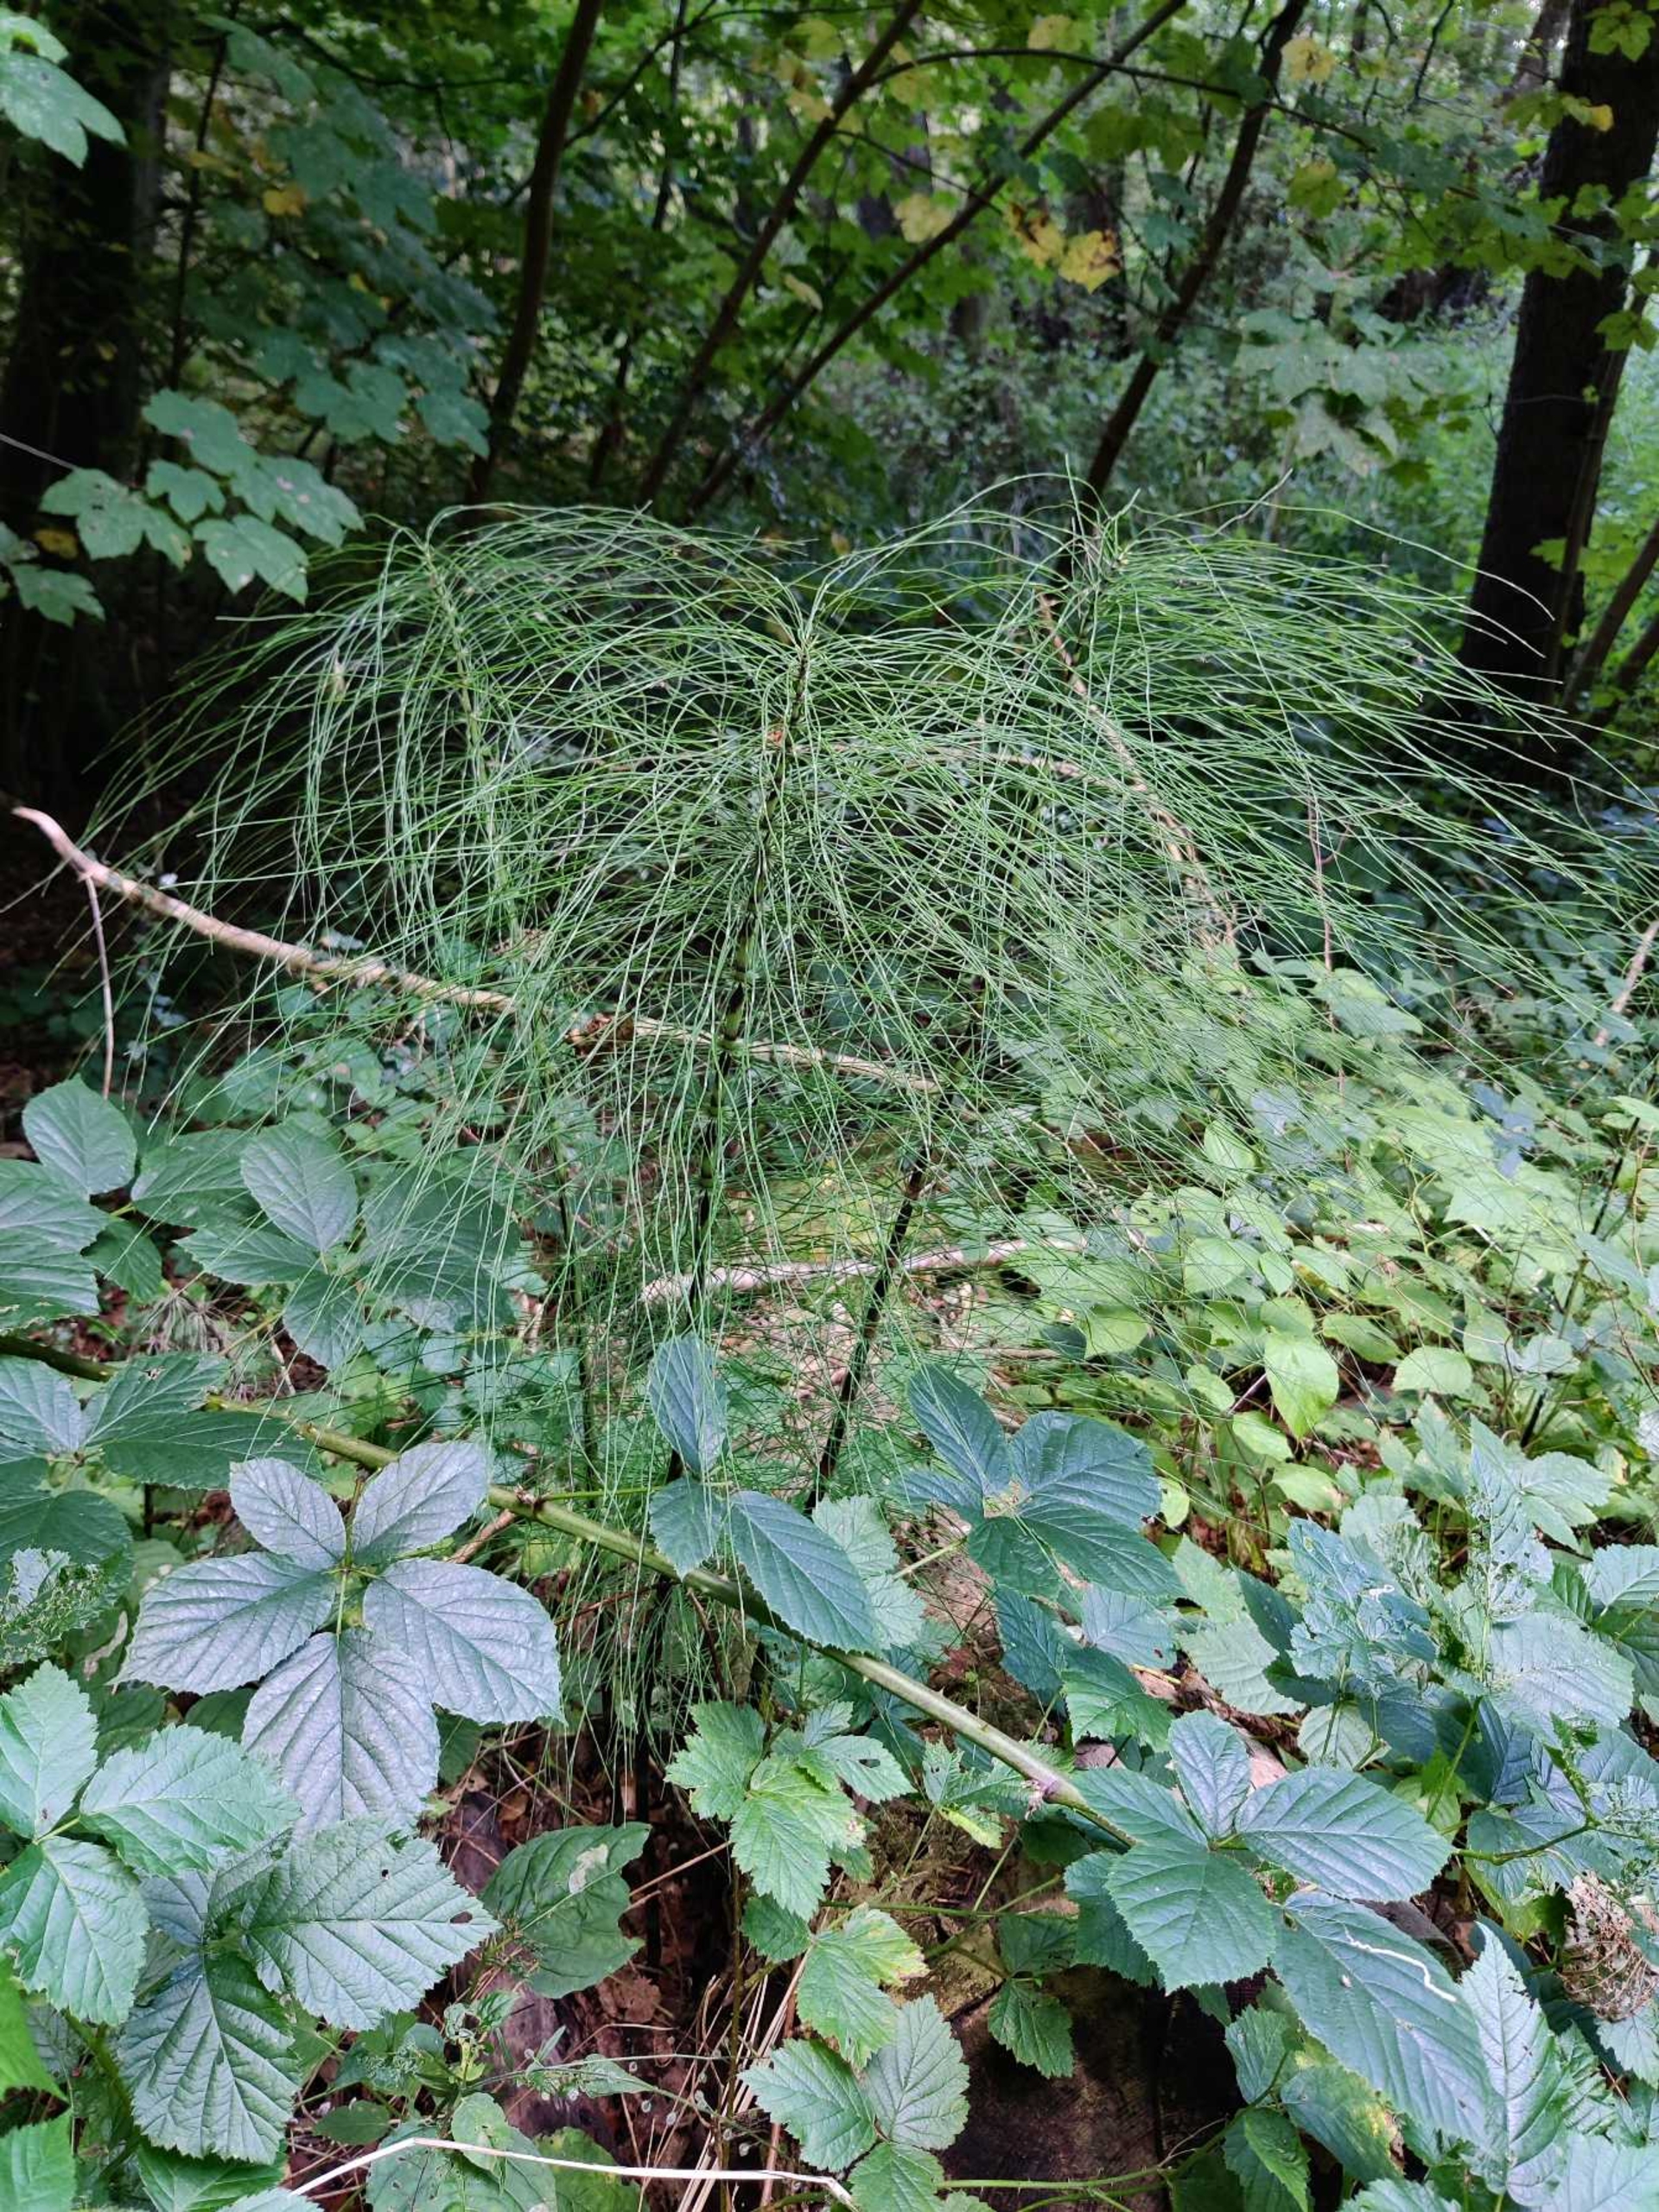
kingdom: Plantae
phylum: Tracheophyta
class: Polypodiopsida
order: Equisetales
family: Equisetaceae
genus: Equisetum
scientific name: Equisetum telmateia
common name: Elfenbens-padderok
